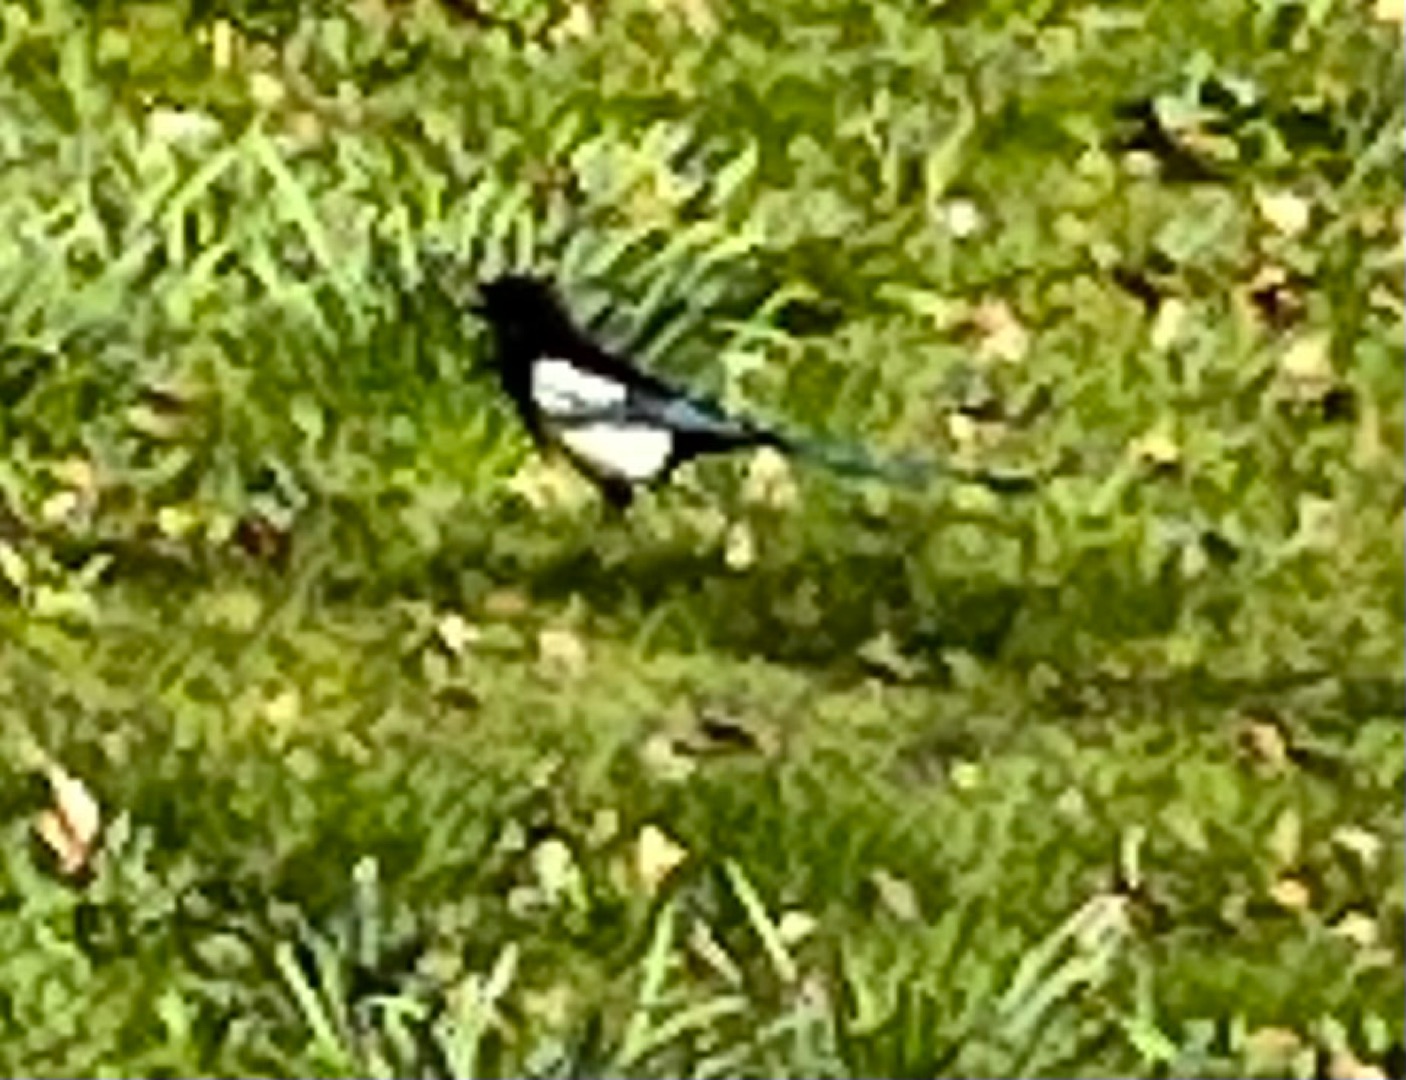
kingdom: Animalia
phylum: Chordata
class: Aves
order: Passeriformes
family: Corvidae
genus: Pica
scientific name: Pica pica
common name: Husskade
